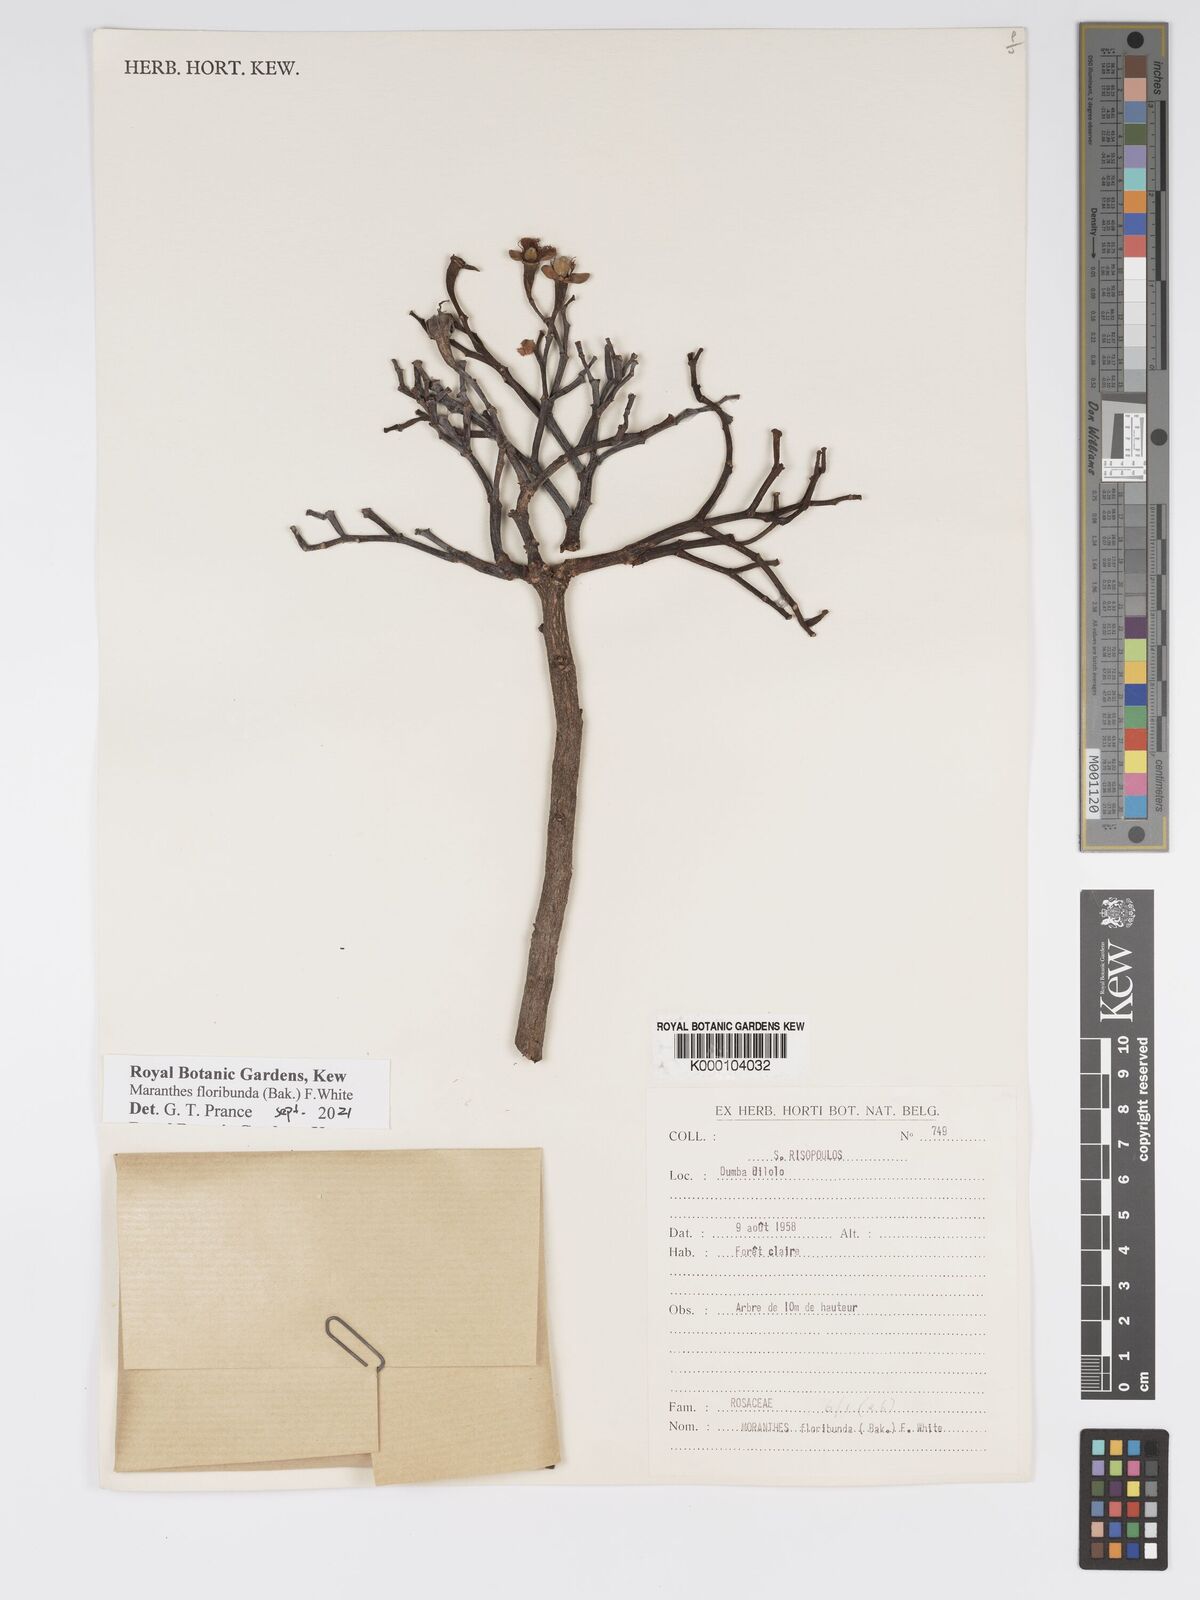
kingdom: Plantae
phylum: Tracheophyta
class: Magnoliopsida
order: Malpighiales
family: Chrysobalanaceae
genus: Maranthes
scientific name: Maranthes floribunda
